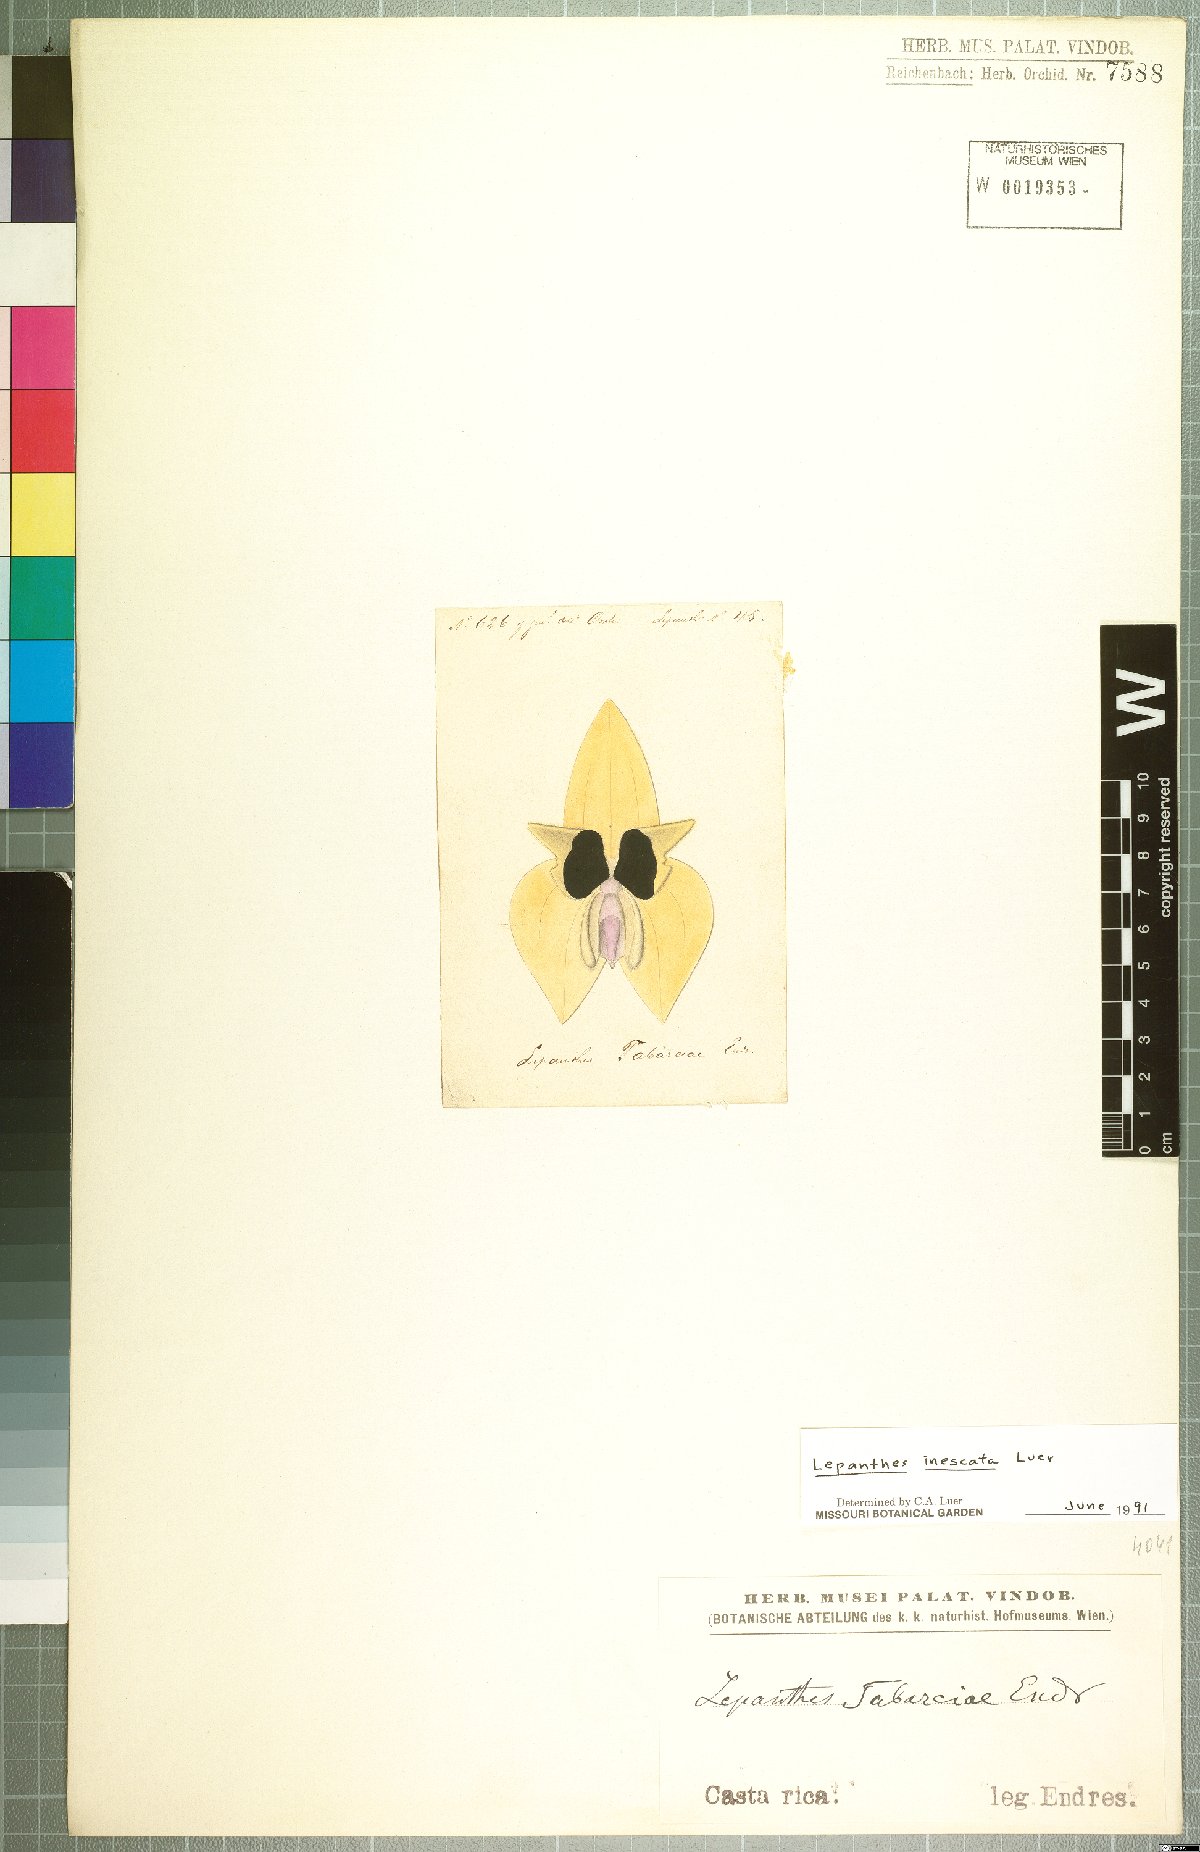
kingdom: Plantae
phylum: Tracheophyta
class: Liliopsida
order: Asparagales
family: Orchidaceae
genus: Lepanthes
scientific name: Lepanthes inescata
